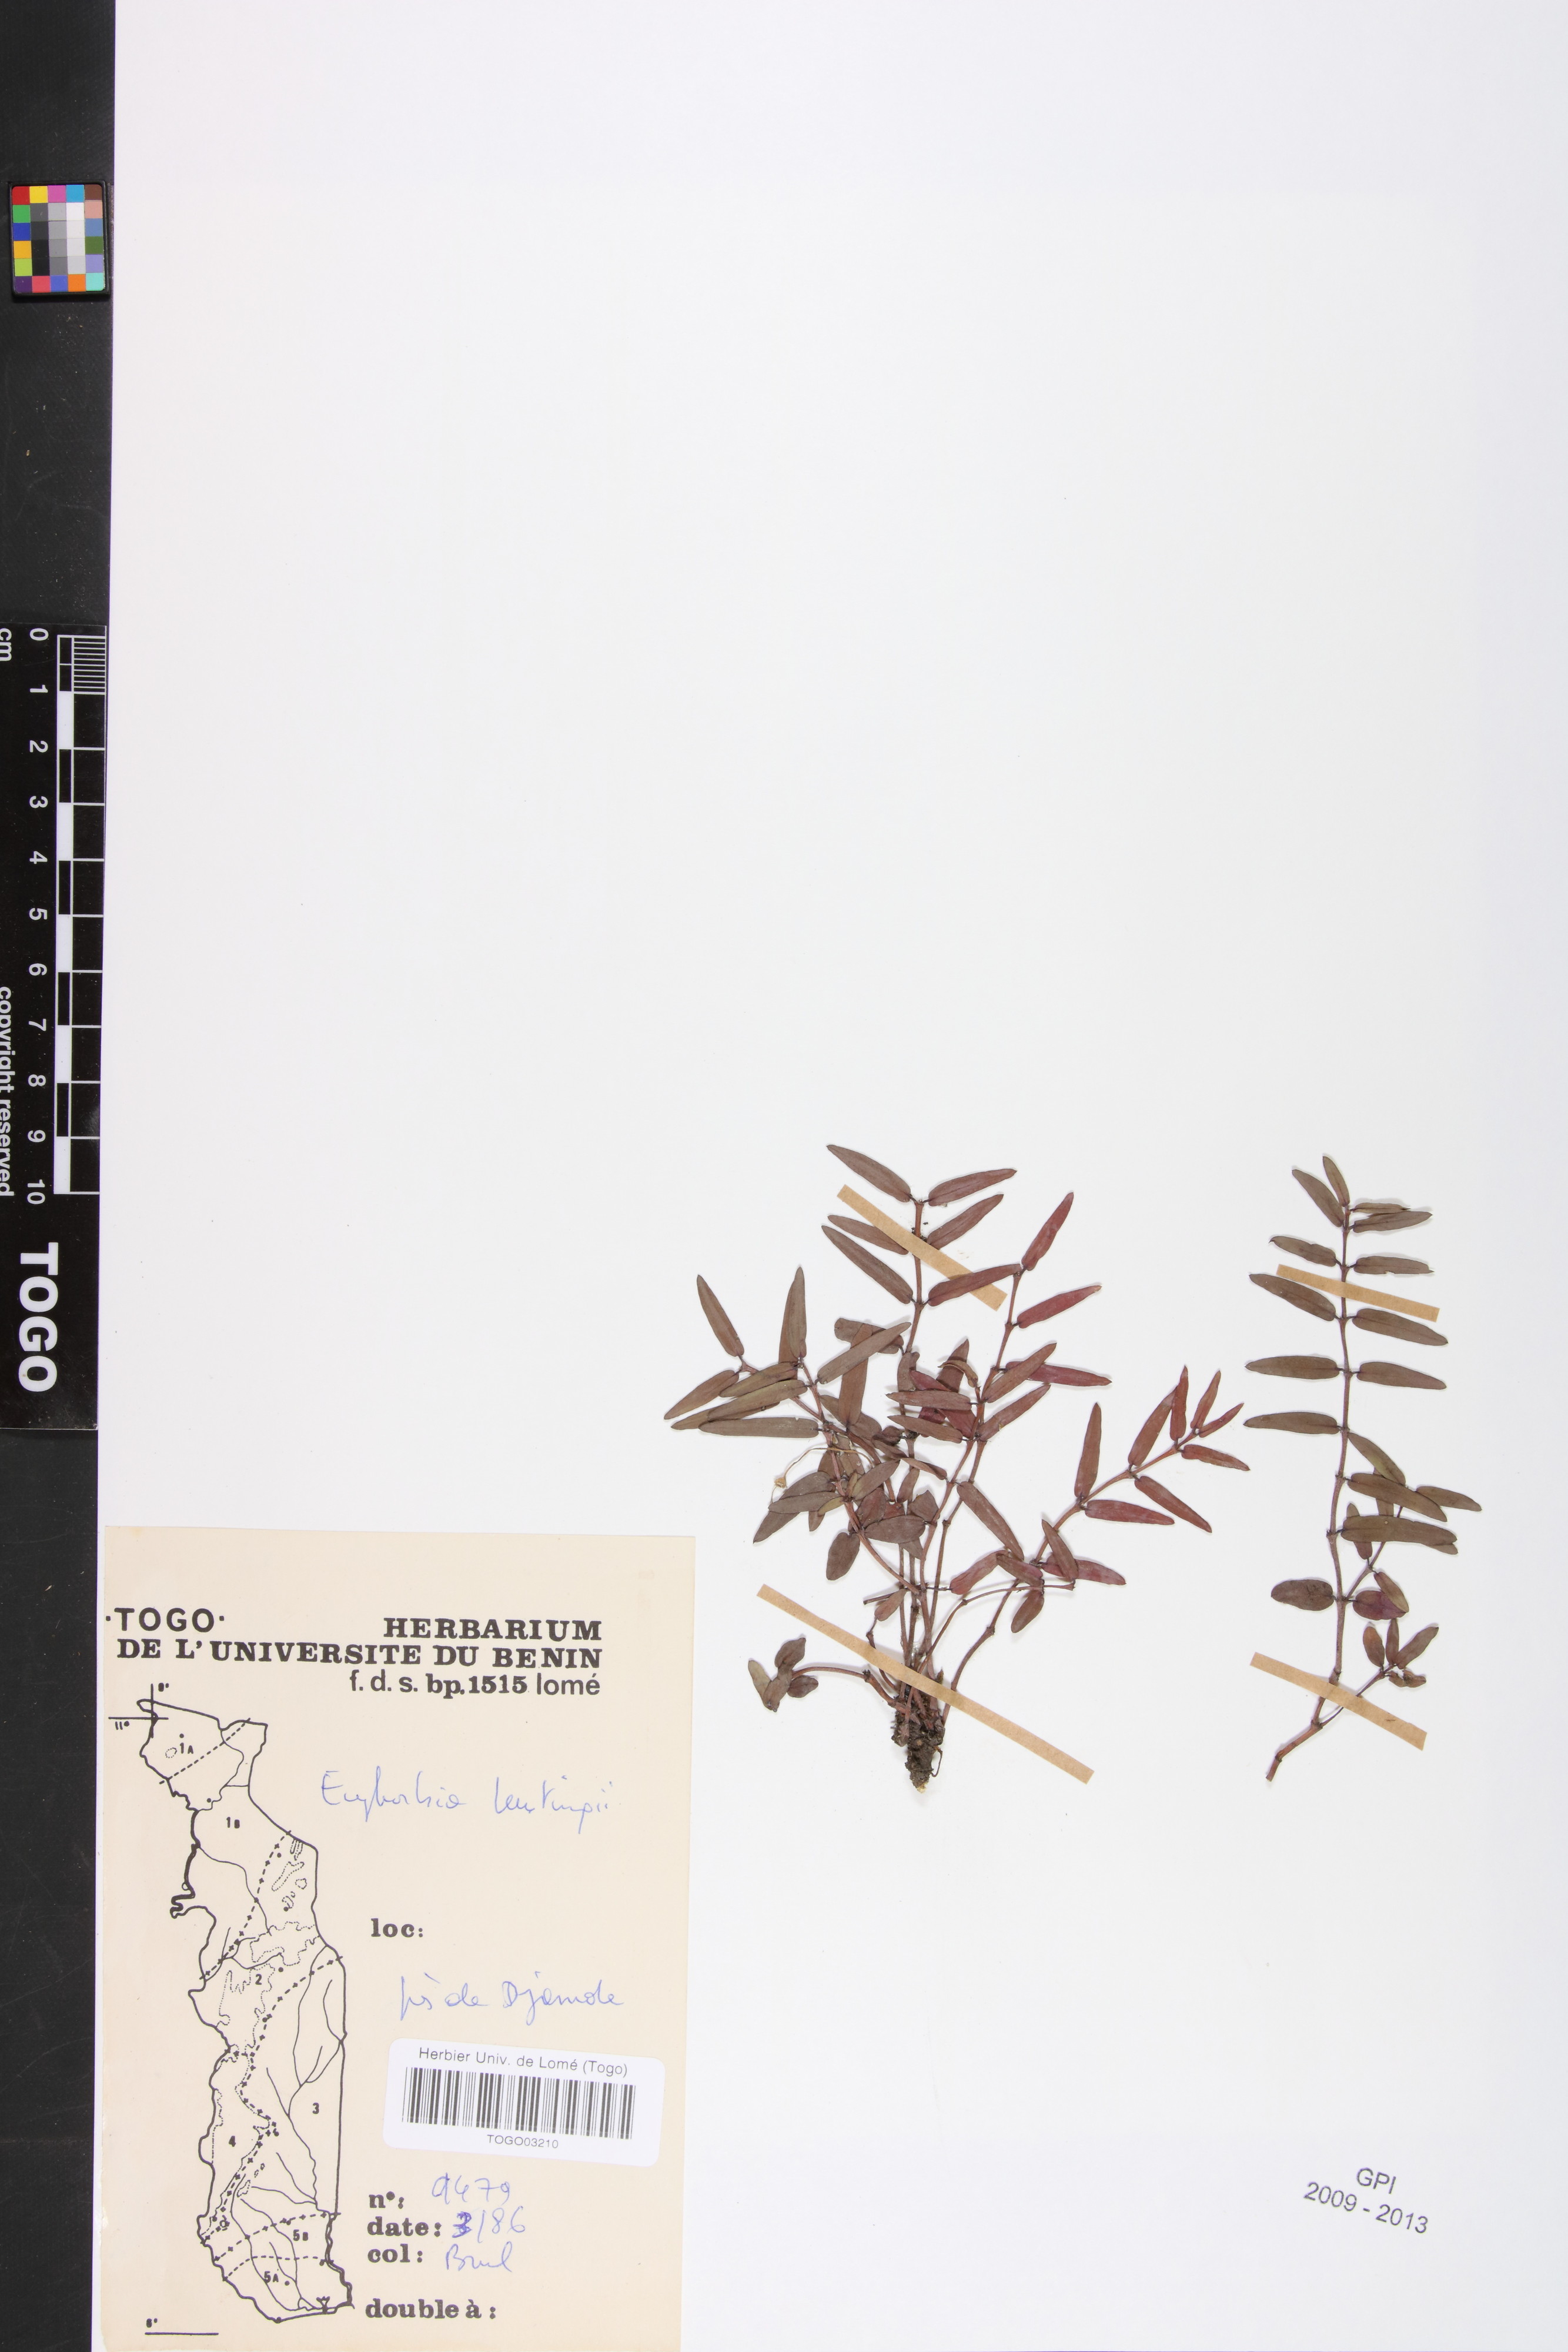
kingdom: Plantae
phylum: Tracheophyta
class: Magnoliopsida
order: Malpighiales
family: Euphorbiaceae
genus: Euphorbia
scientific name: Euphorbia kerstingii
